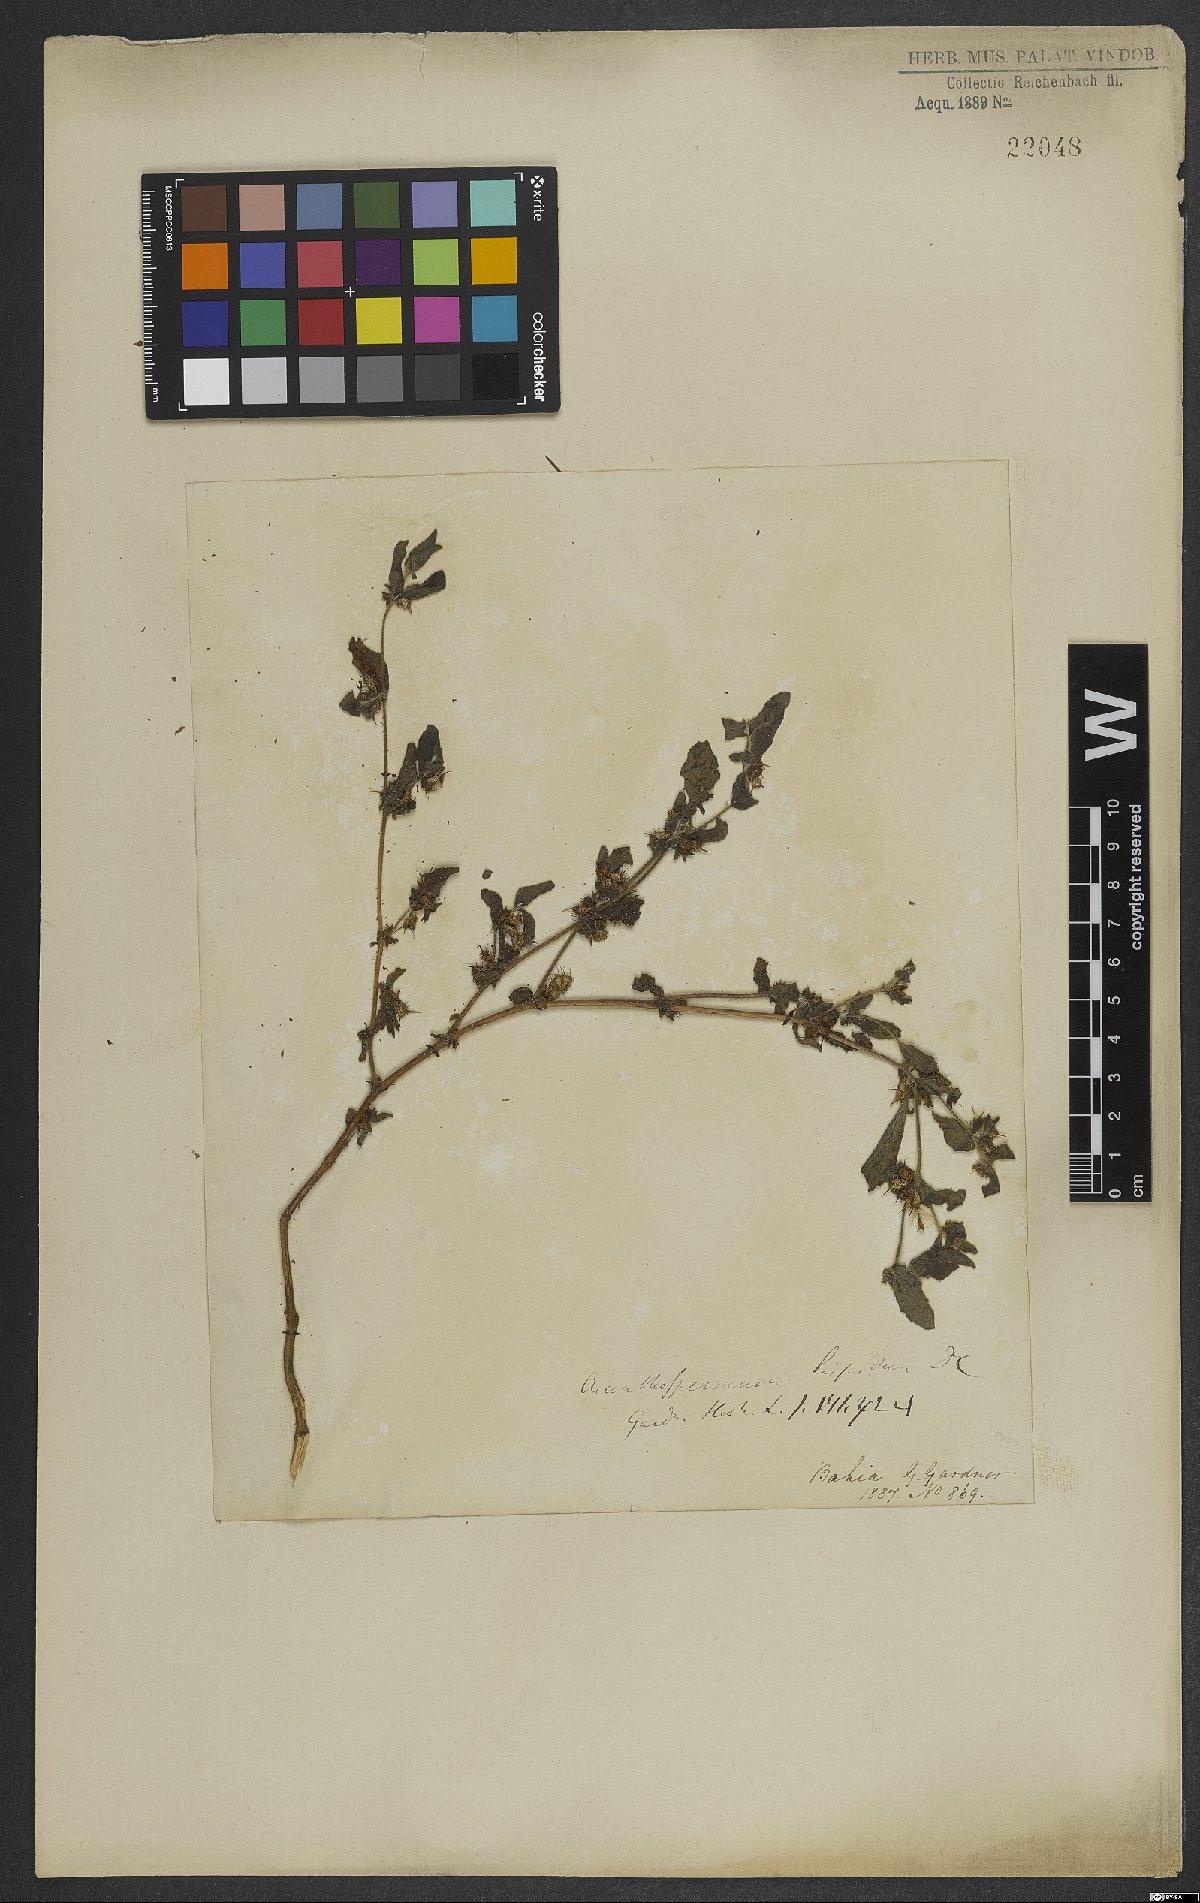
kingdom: Plantae
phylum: Tracheophyta
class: Magnoliopsida
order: Asterales
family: Asteraceae
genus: Acanthospermum
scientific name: Acanthospermum hispidum
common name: Hispid starbur
